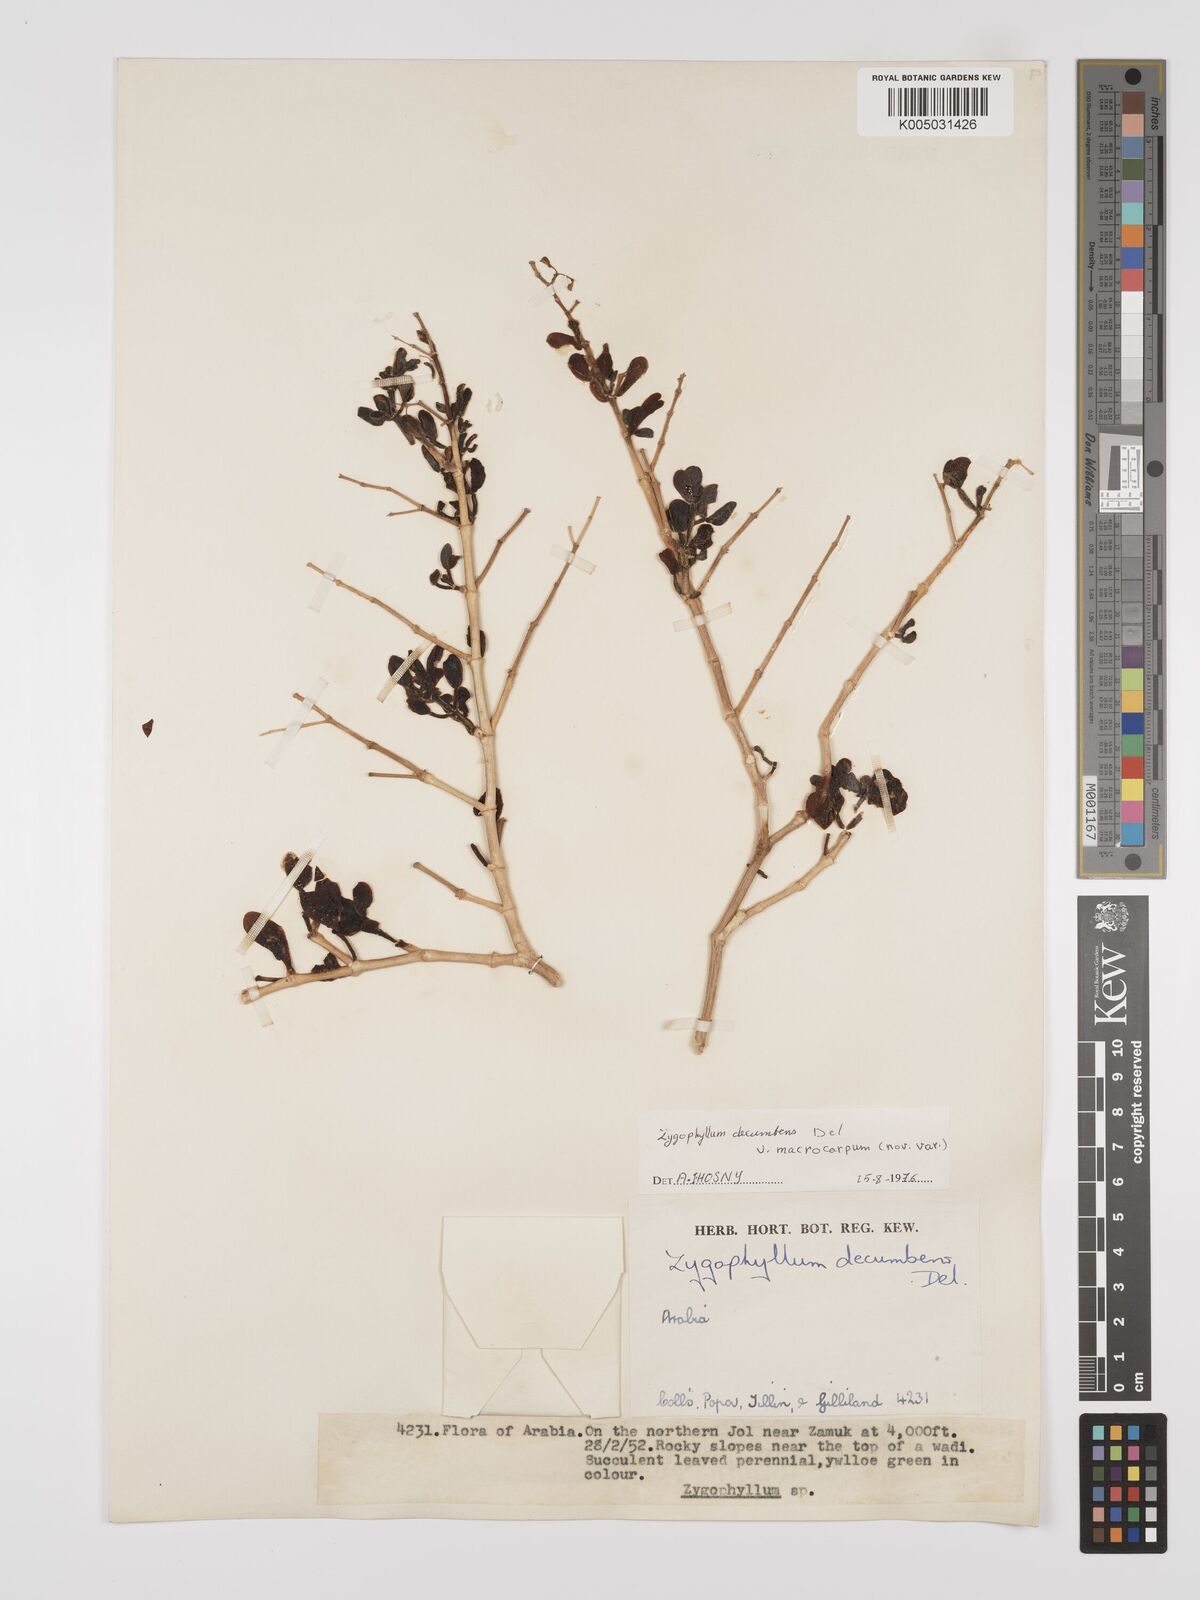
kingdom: Plantae
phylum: Tracheophyta
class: Magnoliopsida
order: Zygophyllales
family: Zygophyllaceae
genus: Tetraena
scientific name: Tetraena decumbens
